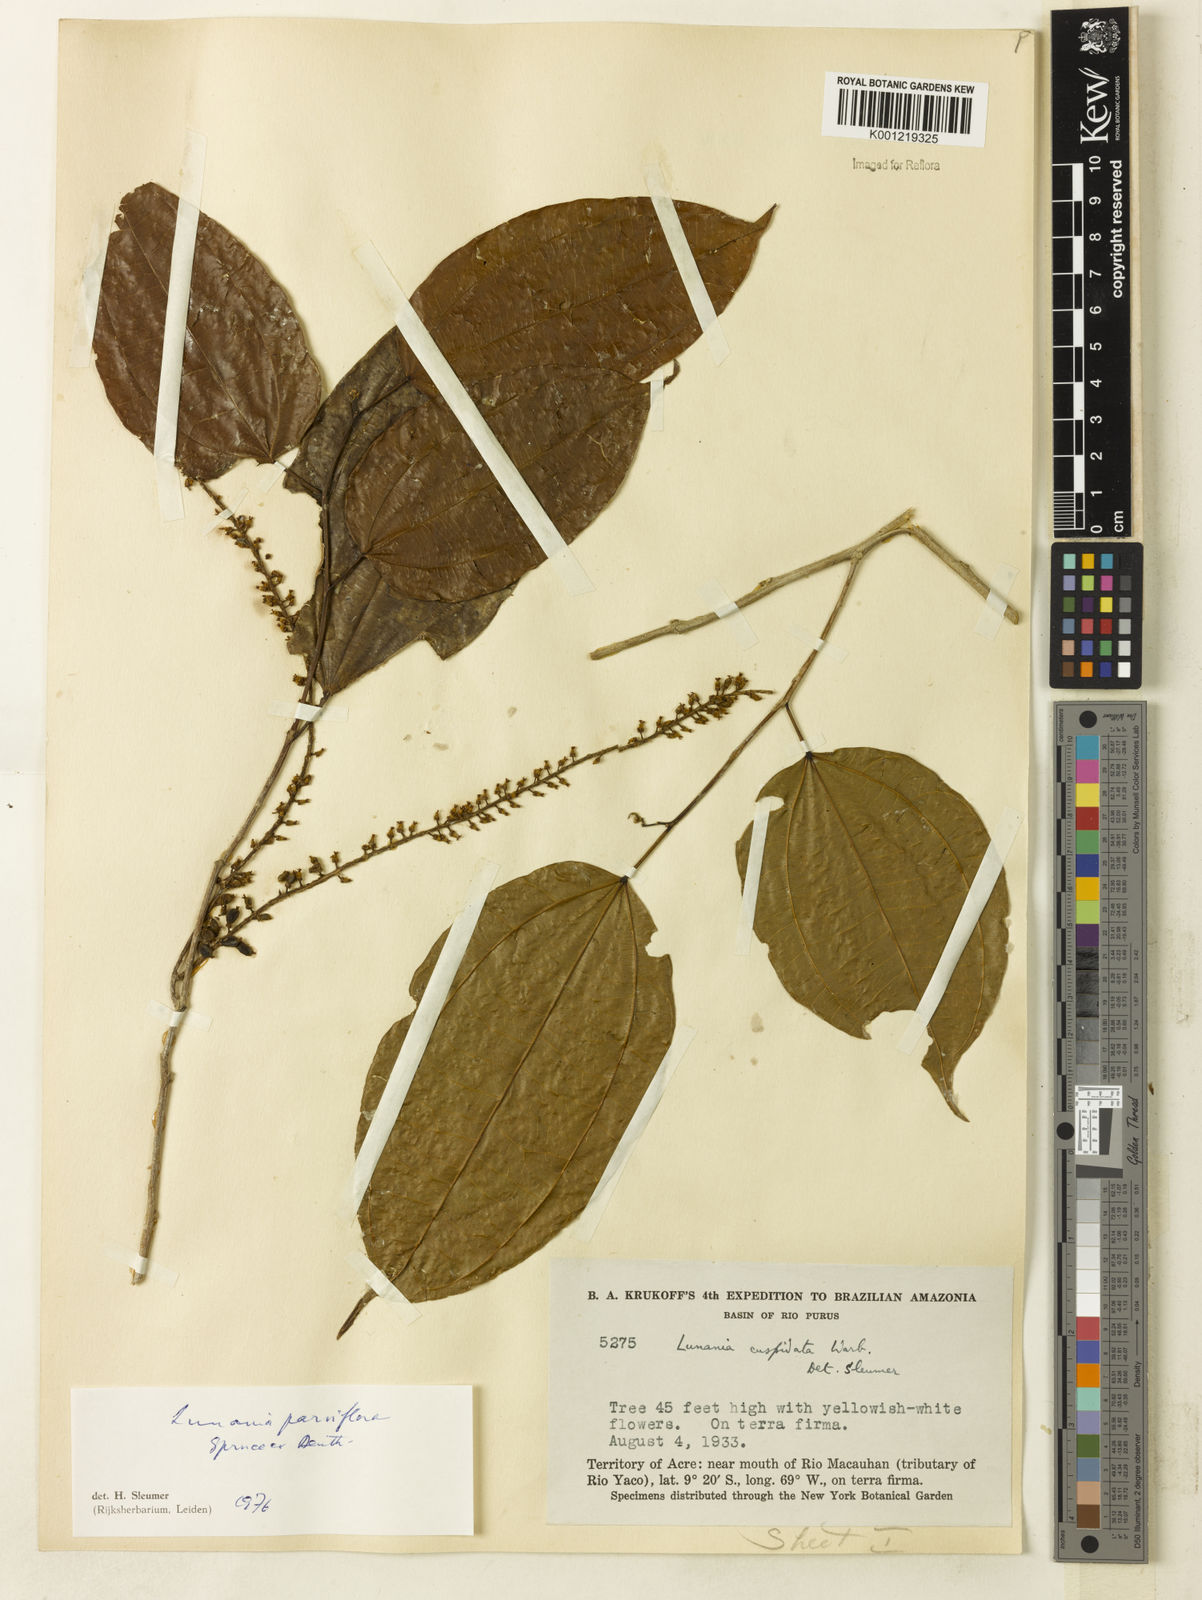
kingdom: Plantae
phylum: Tracheophyta
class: Magnoliopsida
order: Malpighiales
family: Salicaceae
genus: Lunania
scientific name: Lunania parviflora
